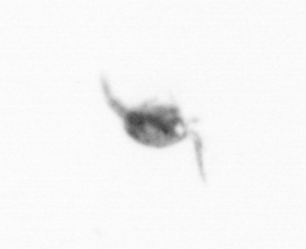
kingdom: Animalia
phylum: Arthropoda
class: Copepoda
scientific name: Copepoda
